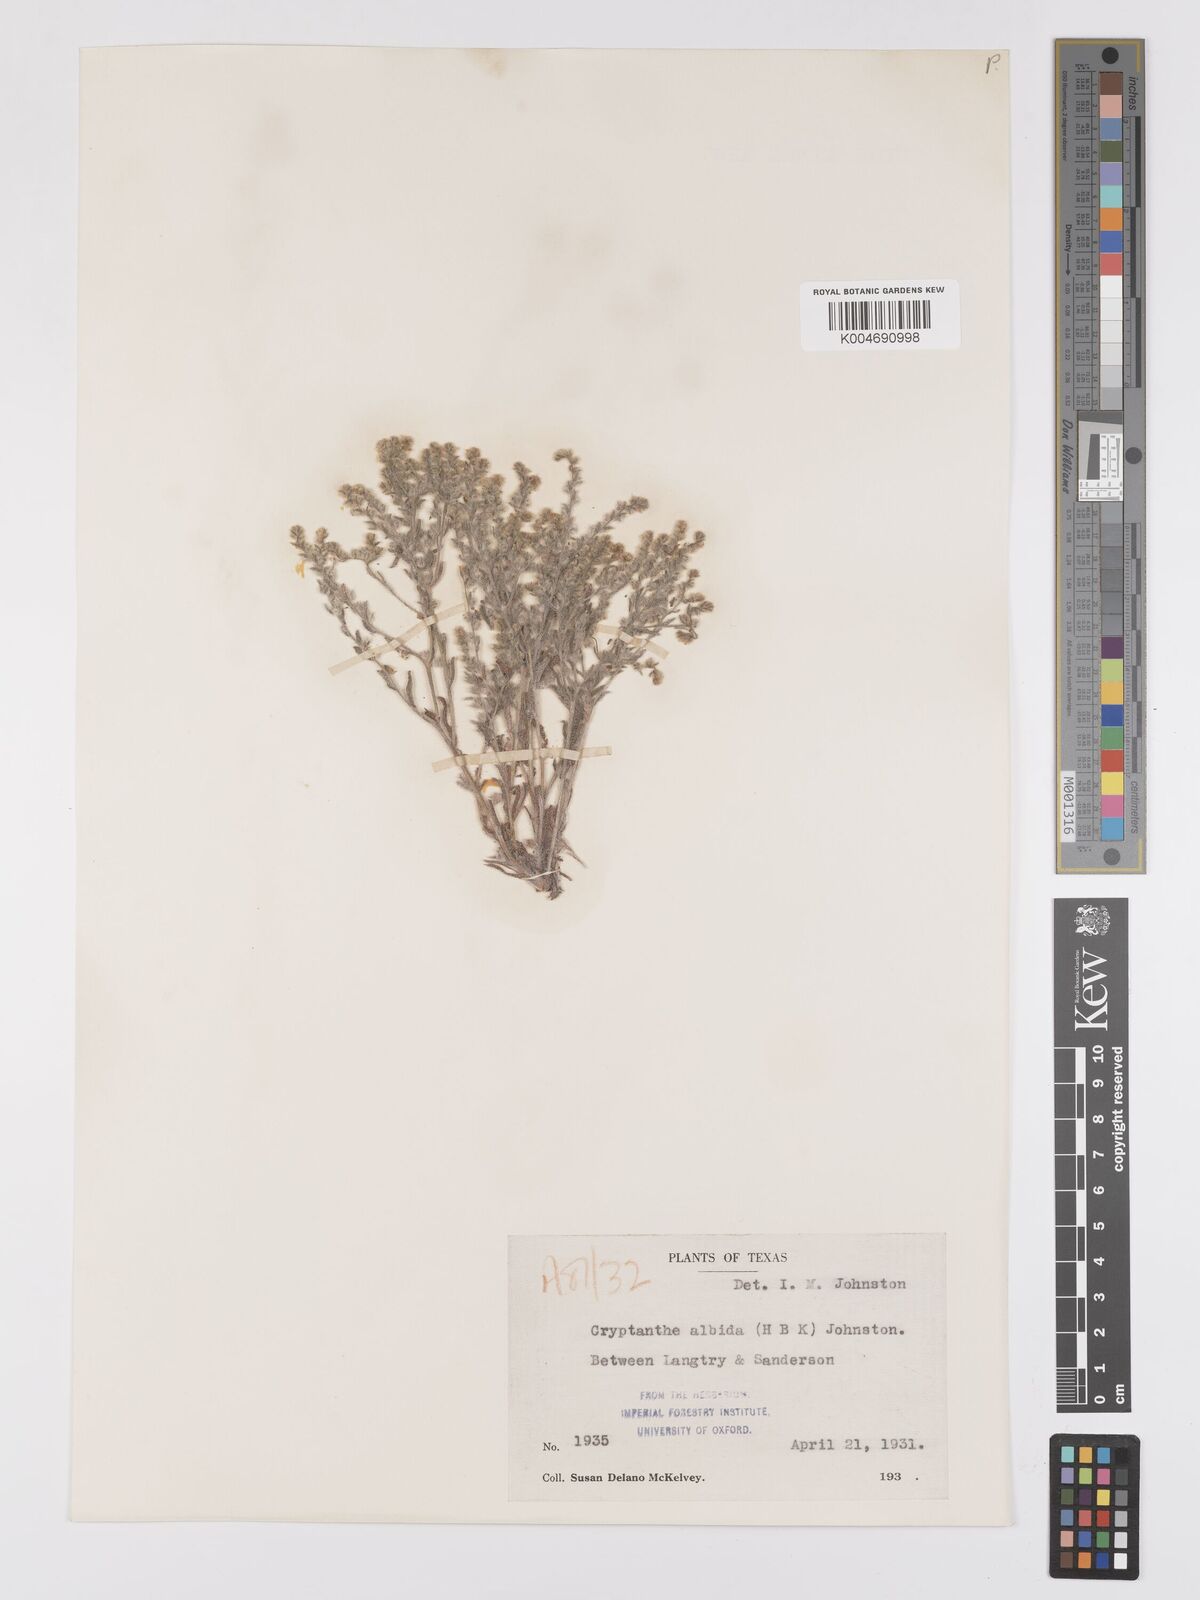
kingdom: Plantae
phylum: Tracheophyta
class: Magnoliopsida
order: Boraginales
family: Boraginaceae
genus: Johnstonella
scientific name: Johnstonella albida
